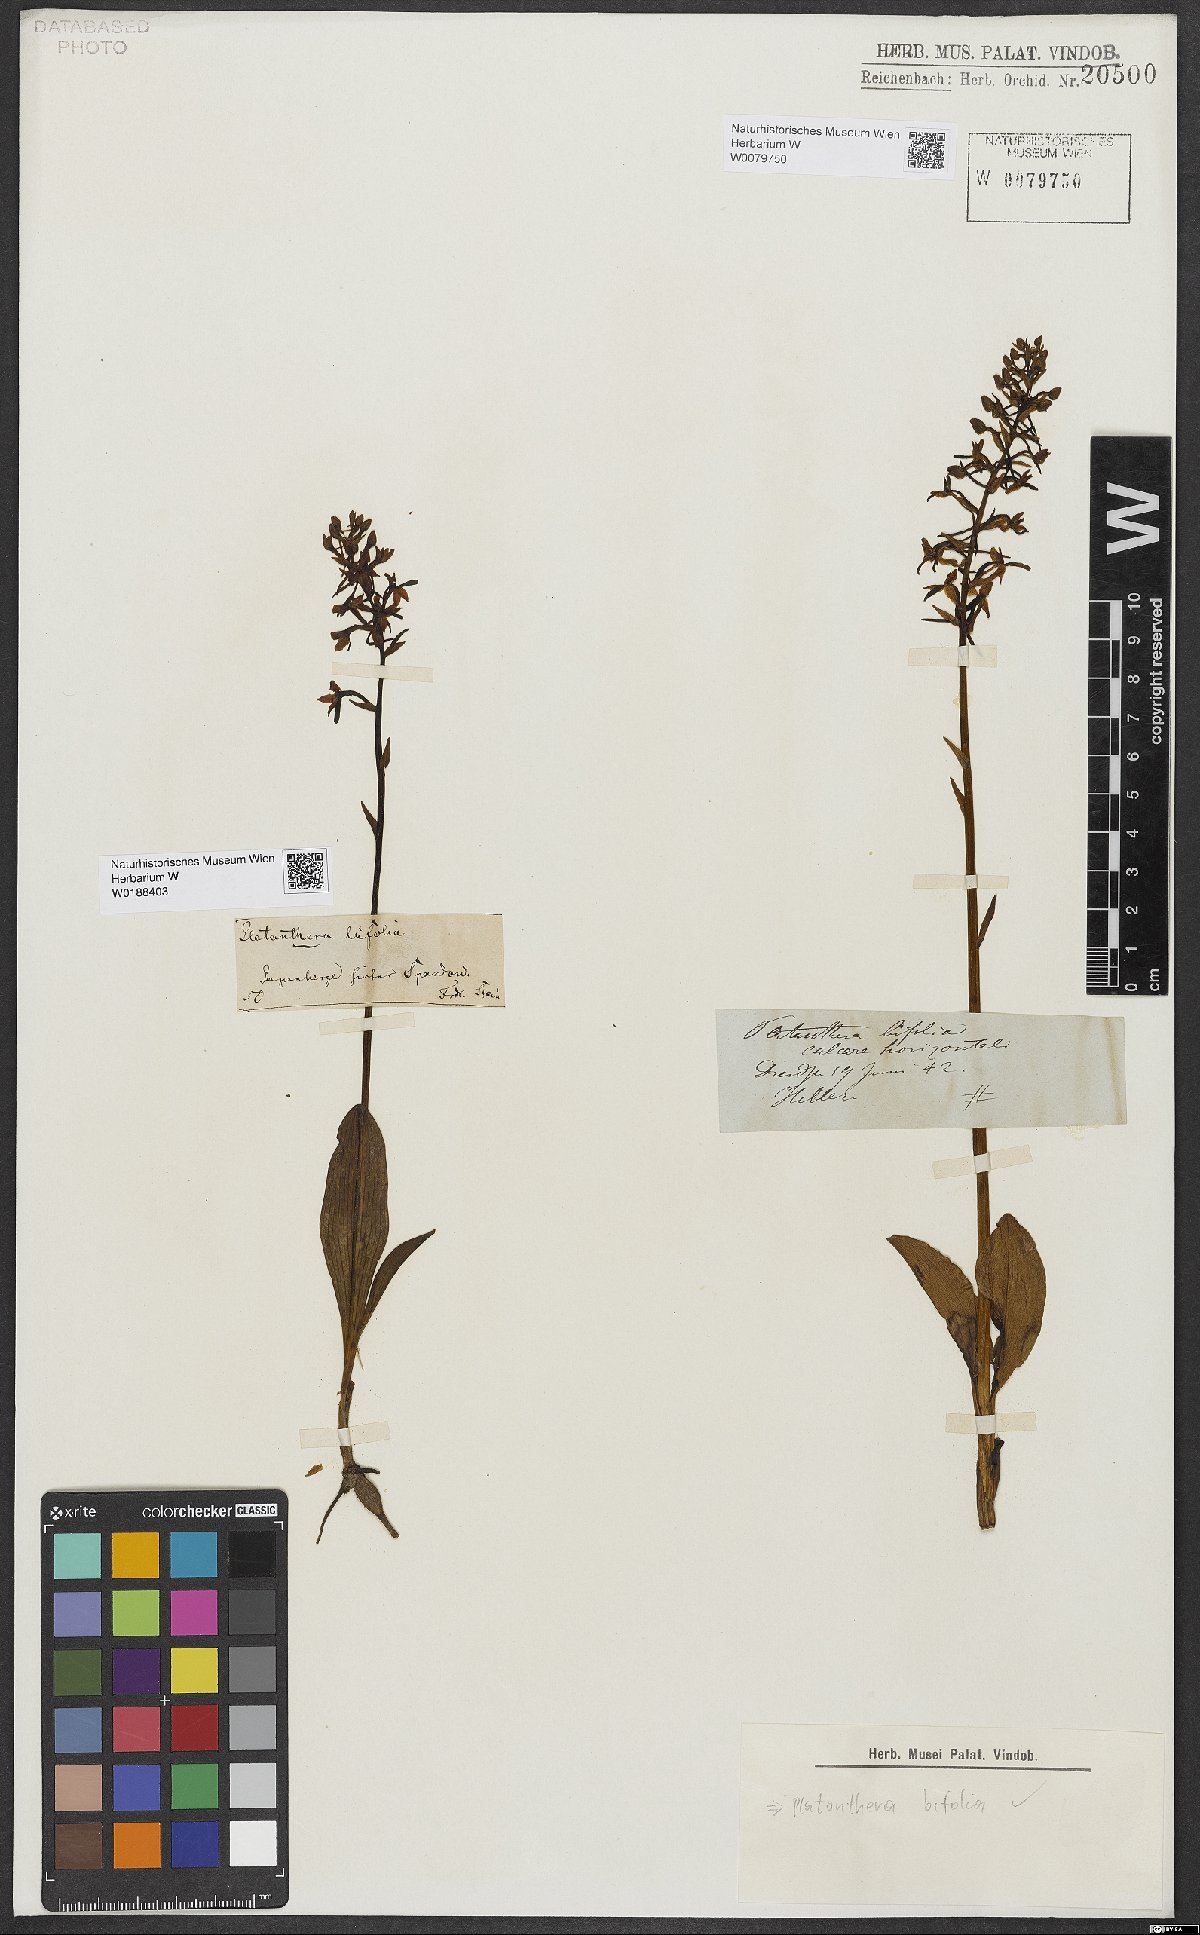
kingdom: Plantae
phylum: Tracheophyta
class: Liliopsida
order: Asparagales
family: Orchidaceae
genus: Platanthera
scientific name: Platanthera bifolia
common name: Lesser butterfly-orchid
